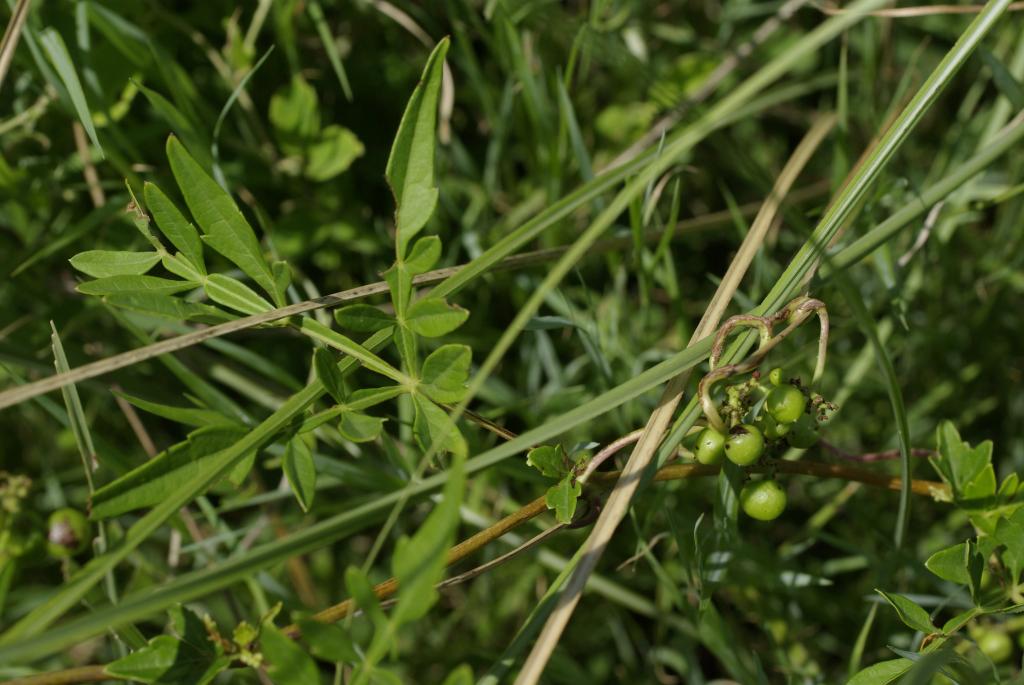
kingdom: Plantae
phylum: Tracheophyta
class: Magnoliopsida
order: Vitales
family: Vitaceae
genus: Ampelopsis
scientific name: Ampelopsis japonica
